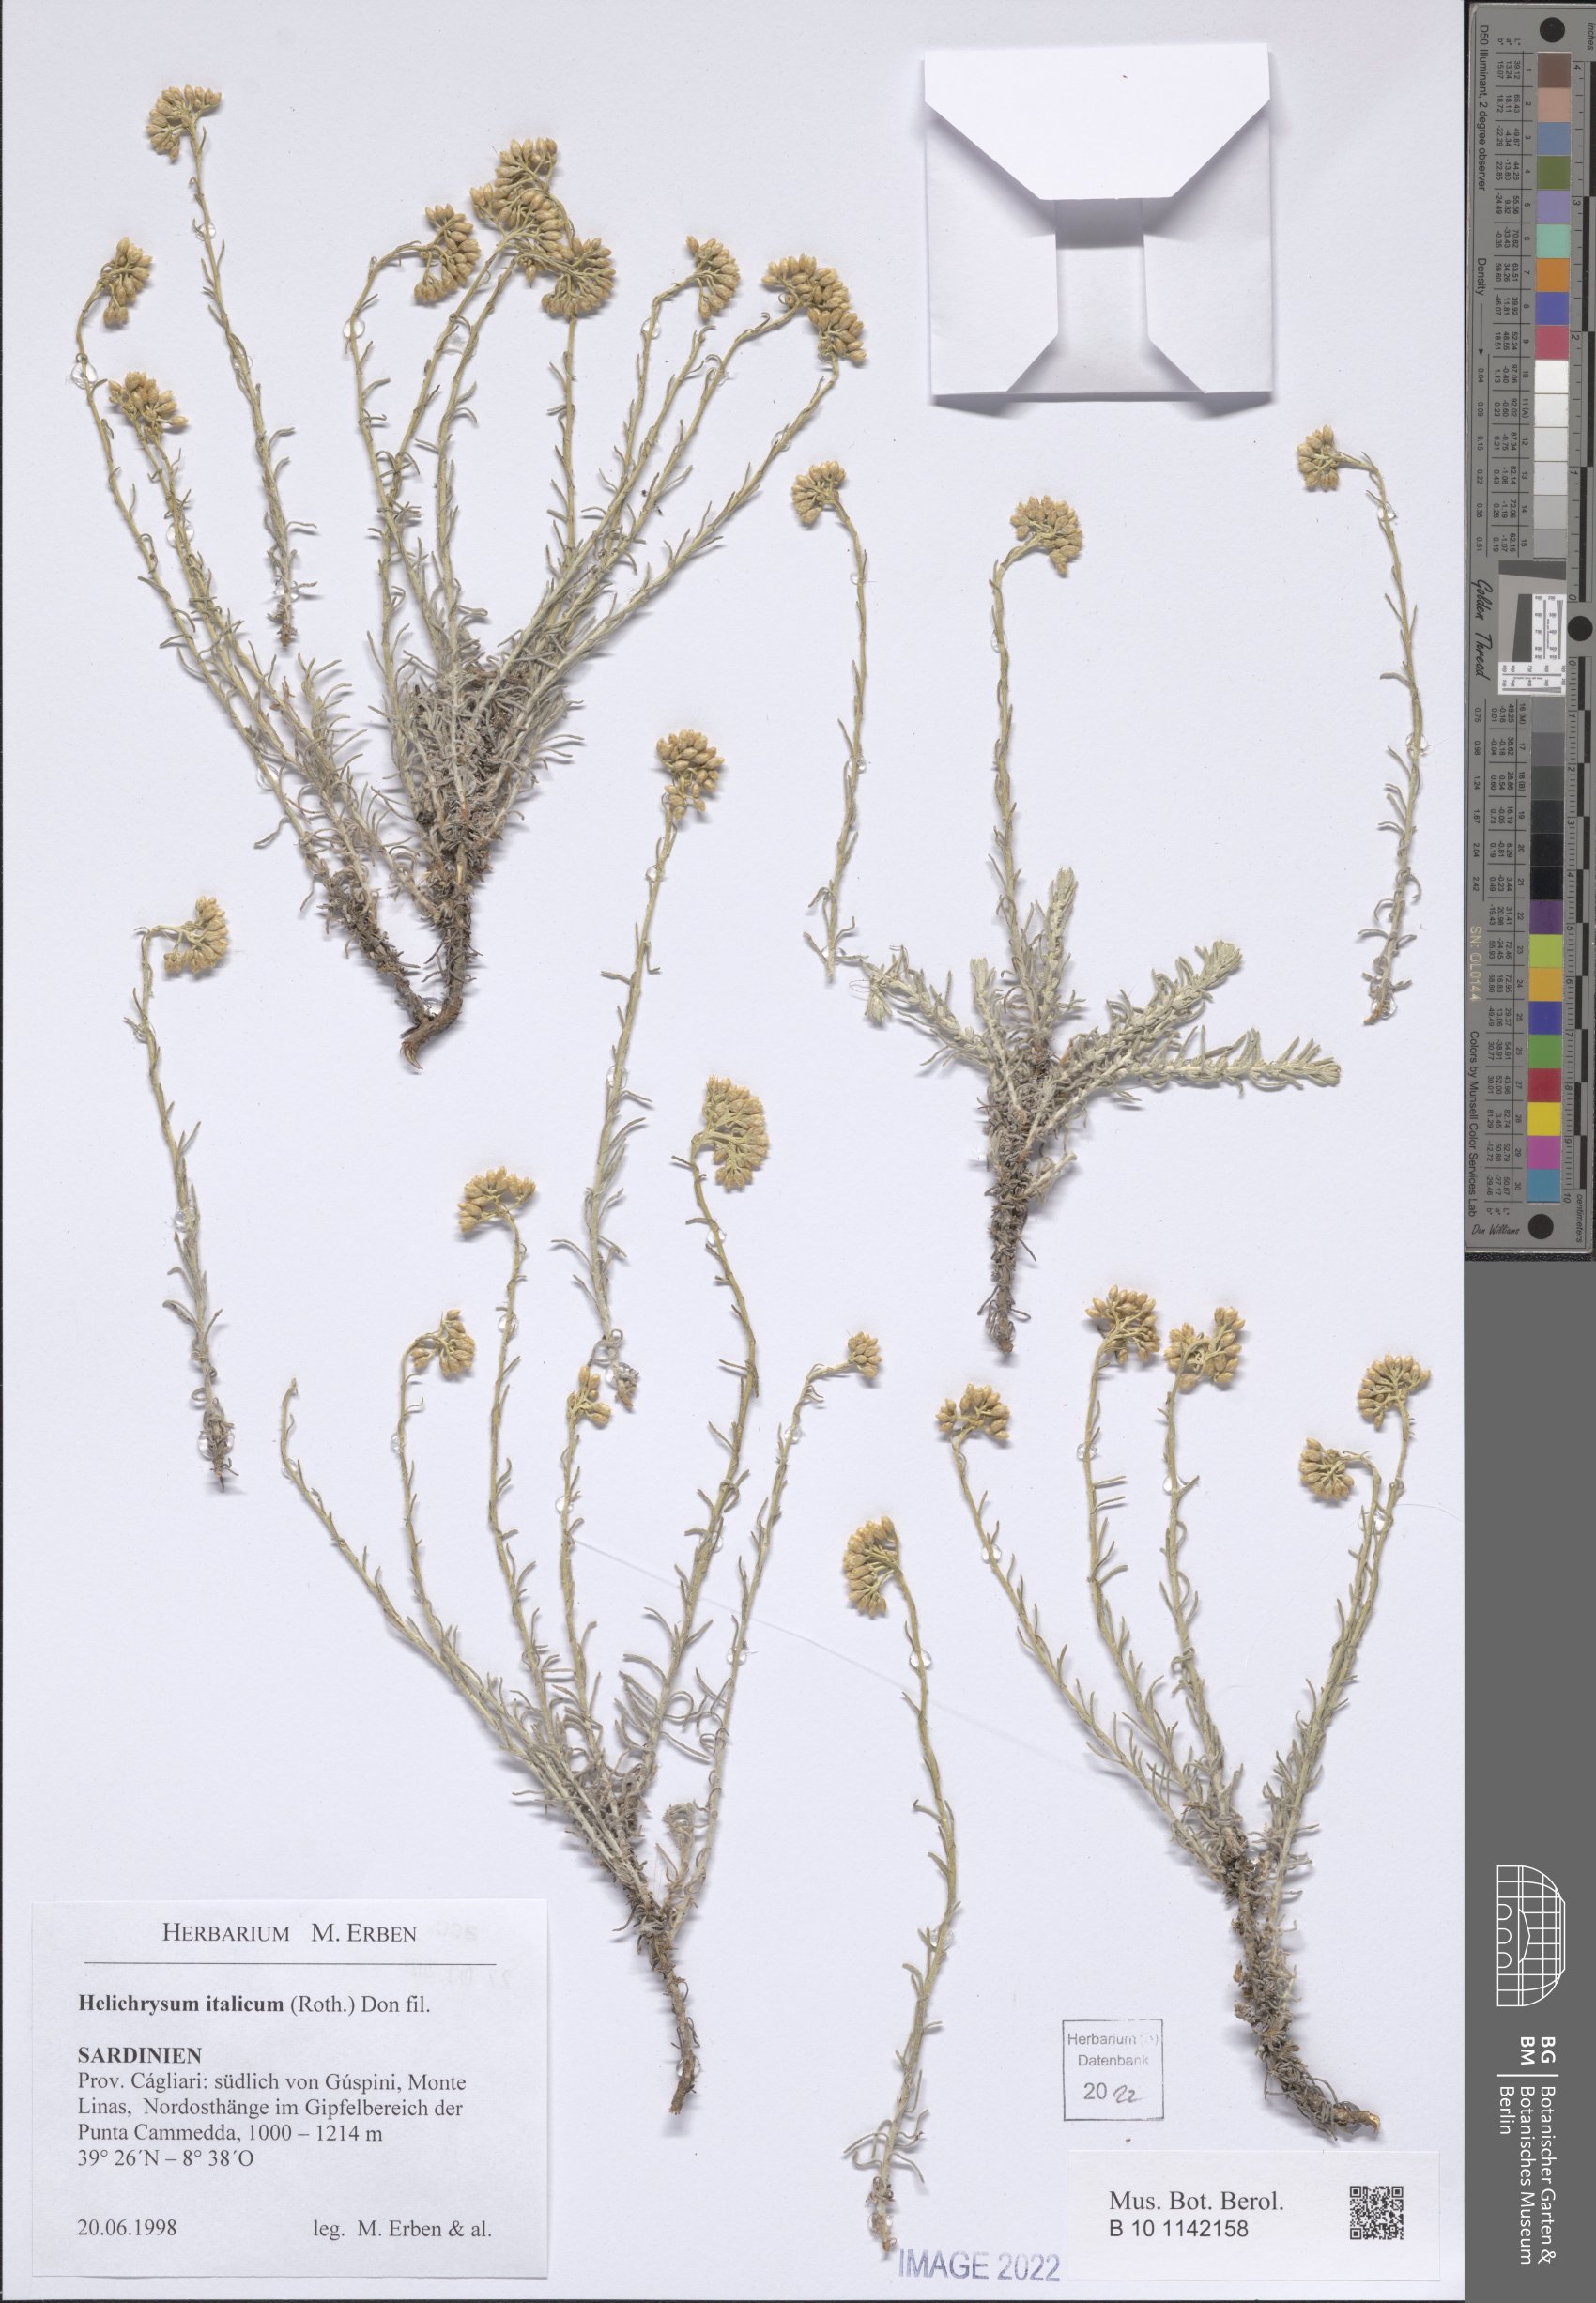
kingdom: Plantae
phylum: Tracheophyta
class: Magnoliopsida
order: Asterales
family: Asteraceae
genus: Helichrysum
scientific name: Helichrysum italicum
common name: Curryplant
